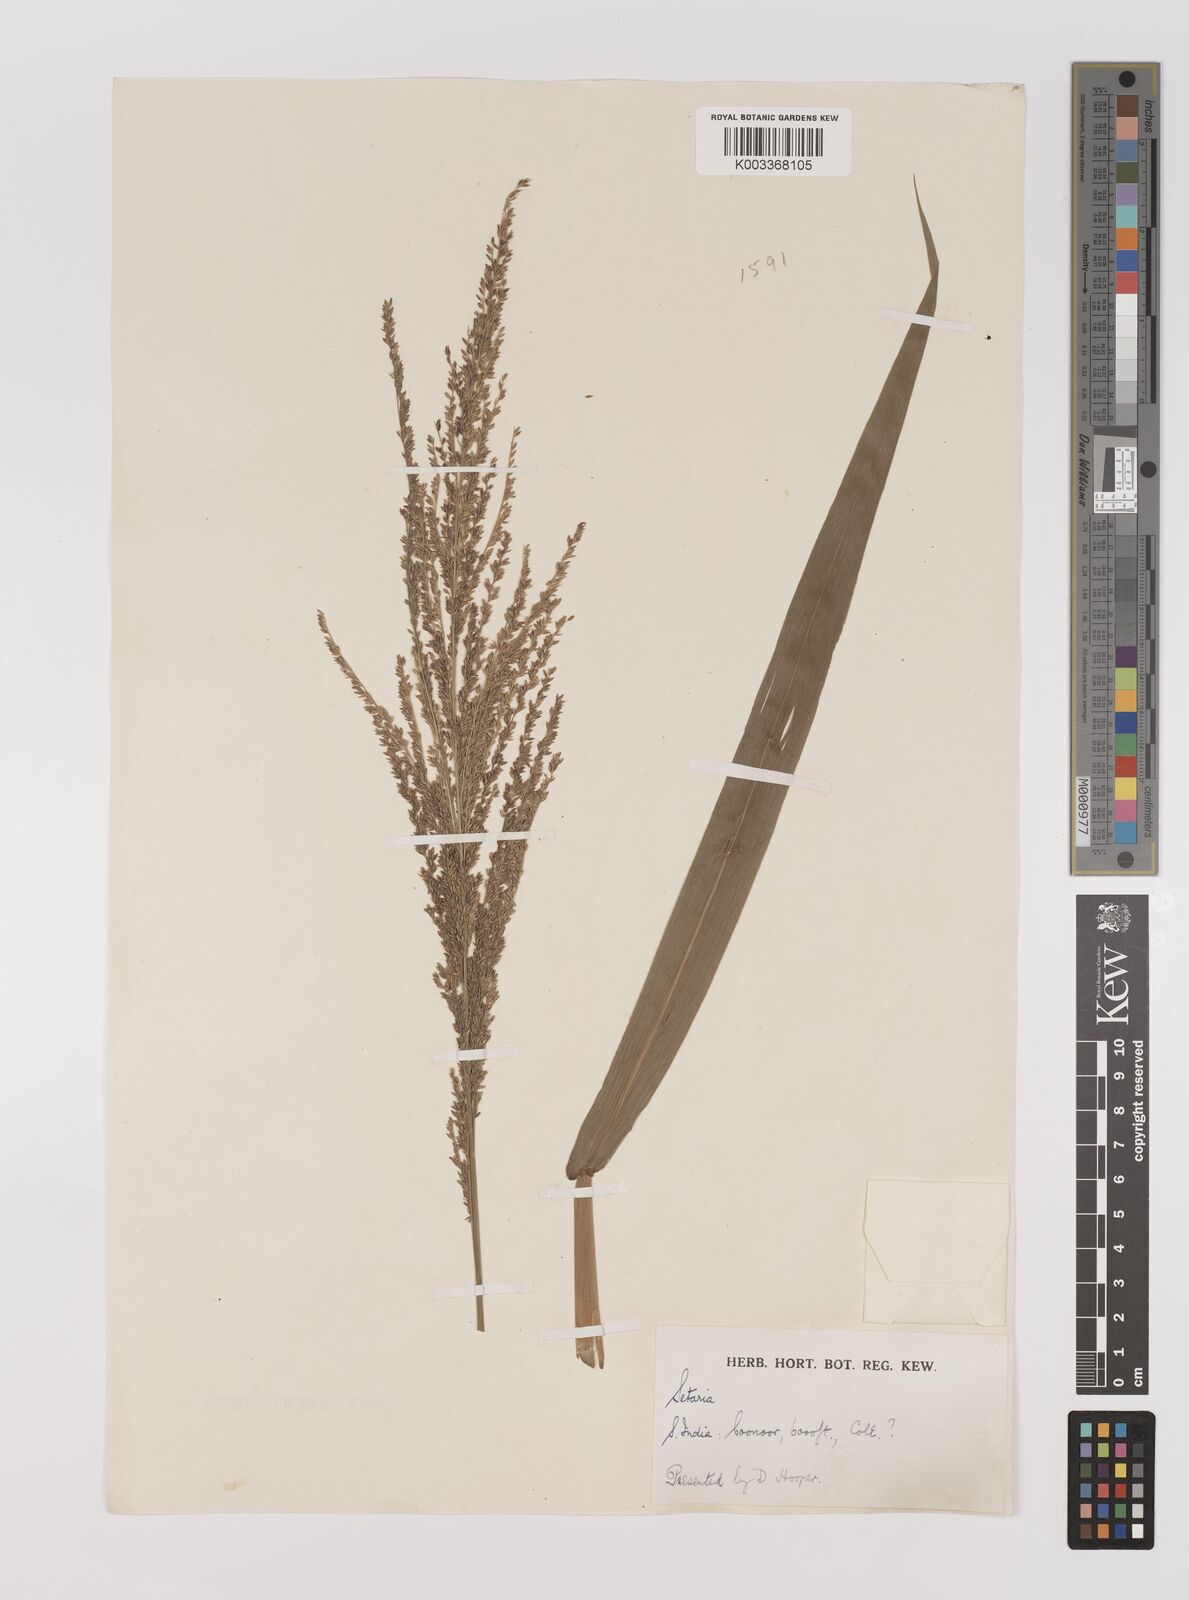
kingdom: Plantae
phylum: Tracheophyta
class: Liliopsida
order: Poales
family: Poaceae
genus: Hymenachne
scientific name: Hymenachne aurita
